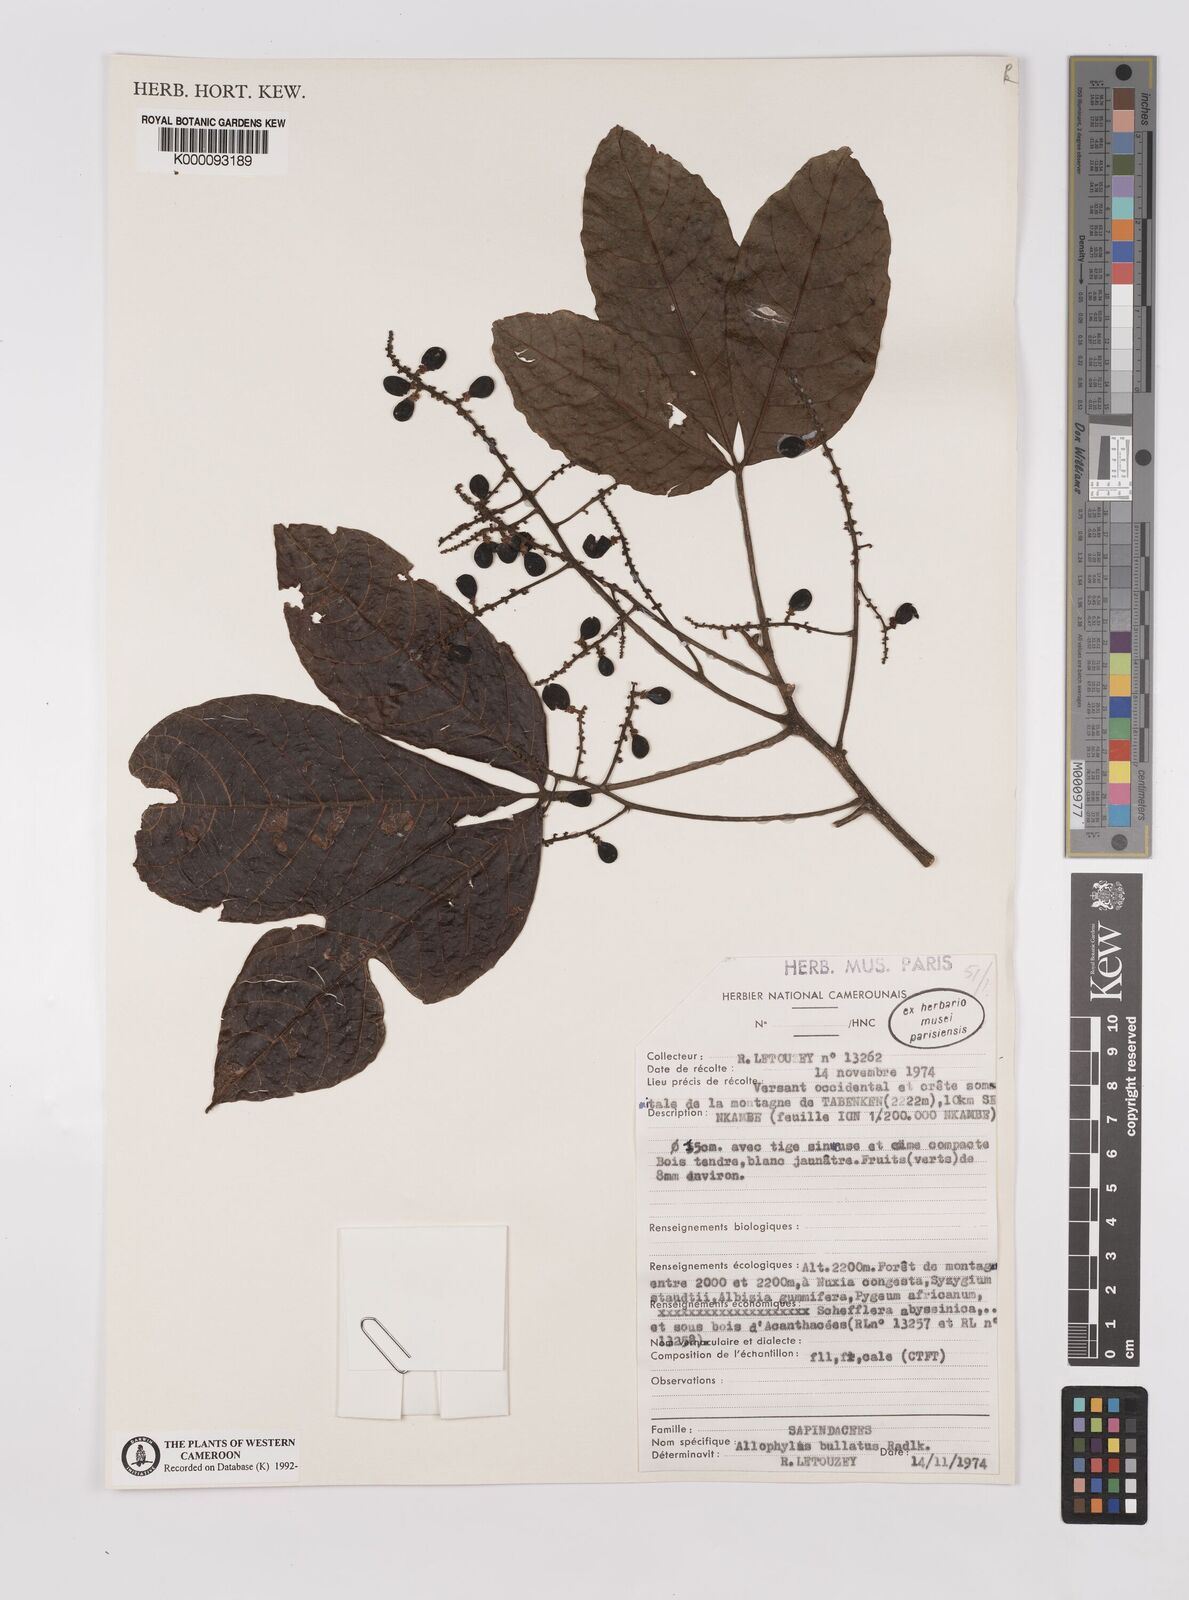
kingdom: Plantae
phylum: Tracheophyta
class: Magnoliopsida
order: Sapindales
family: Sapindaceae
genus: Allophylus
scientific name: Allophylus bullatus
